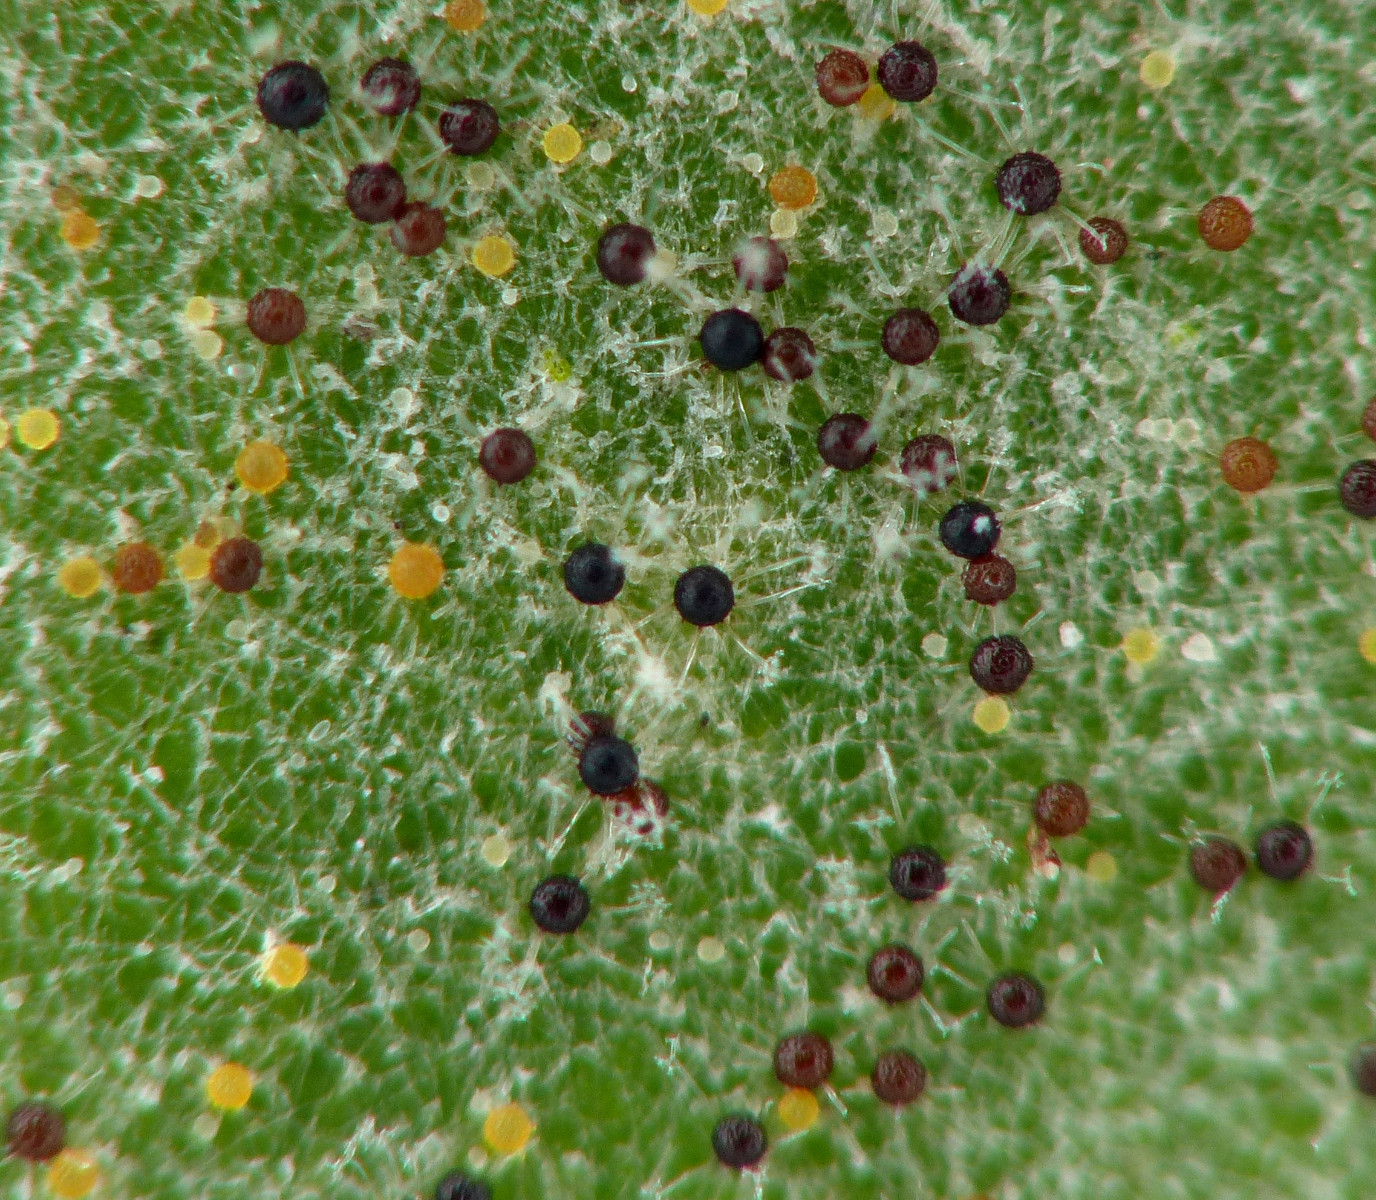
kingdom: Fungi
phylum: Ascomycota
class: Leotiomycetes
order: Helotiales
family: Erysiphaceae
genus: Erysiphe
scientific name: Erysiphe syringae-japonicae
